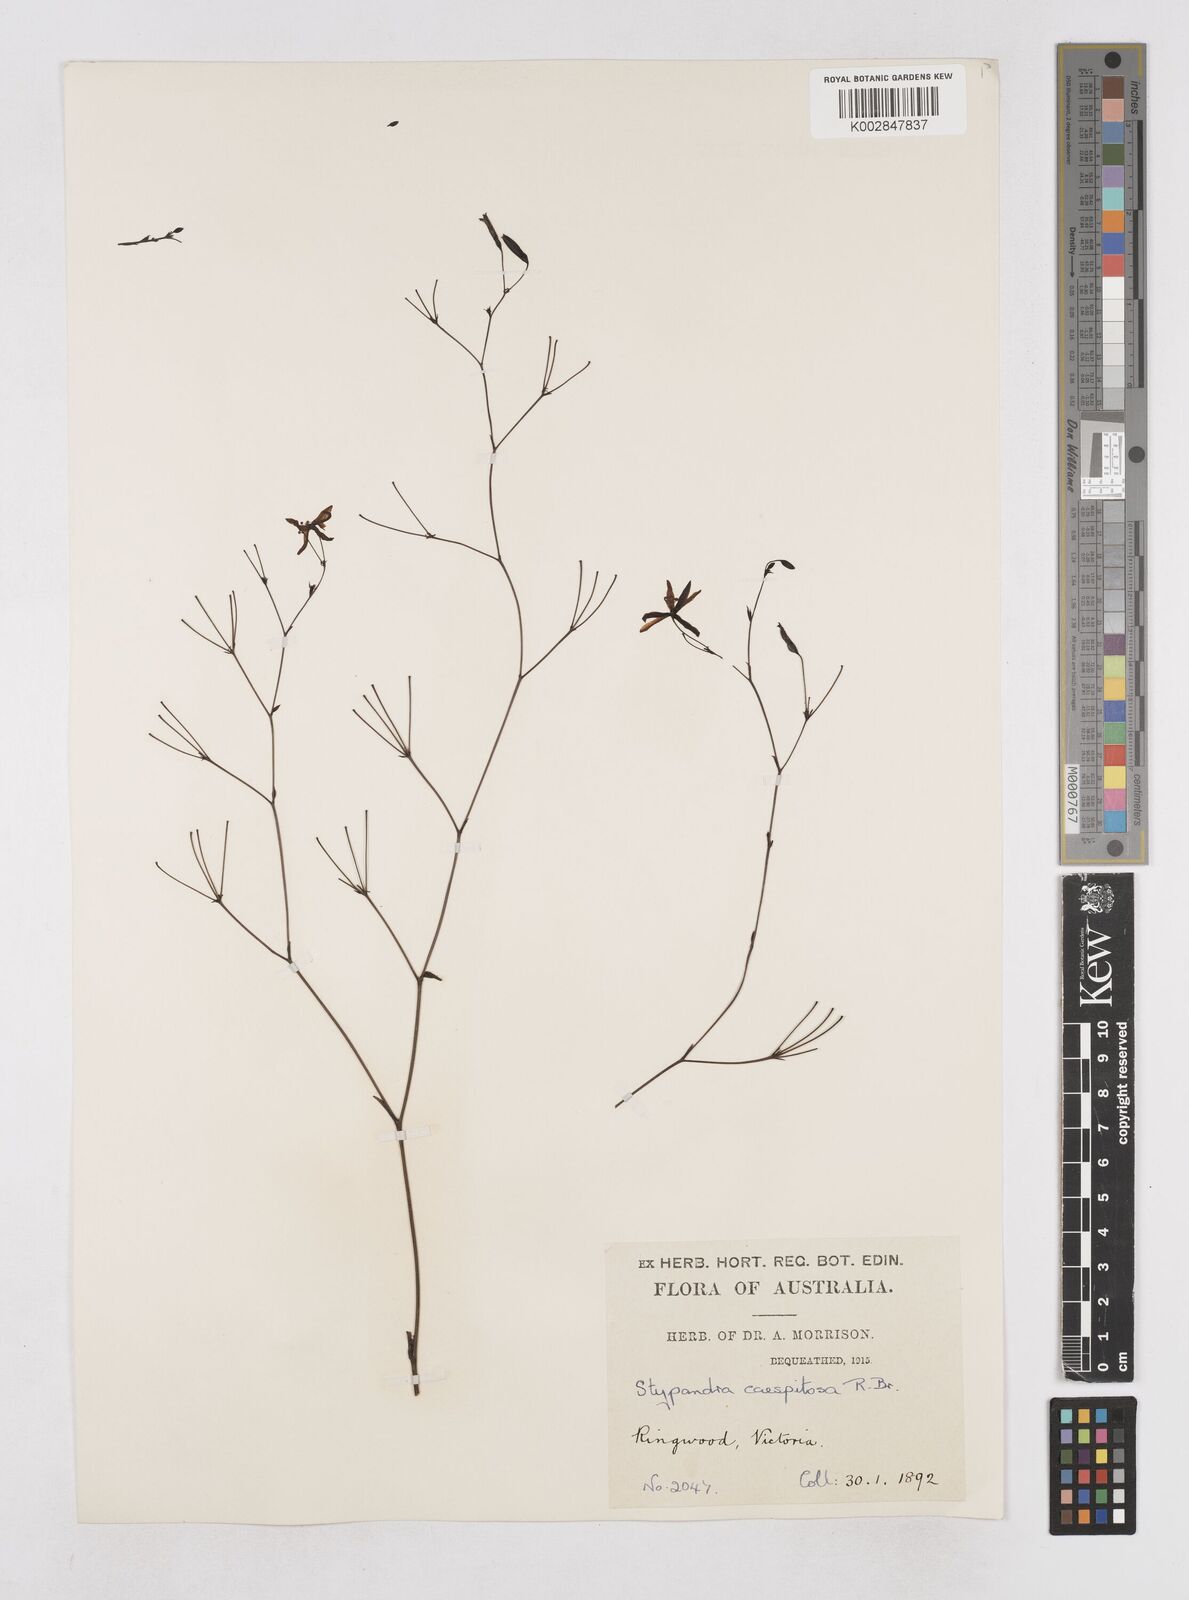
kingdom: Plantae
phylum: Tracheophyta
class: Liliopsida
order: Asparagales
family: Asphodelaceae
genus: Thelionema
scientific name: Thelionema caespitosum
